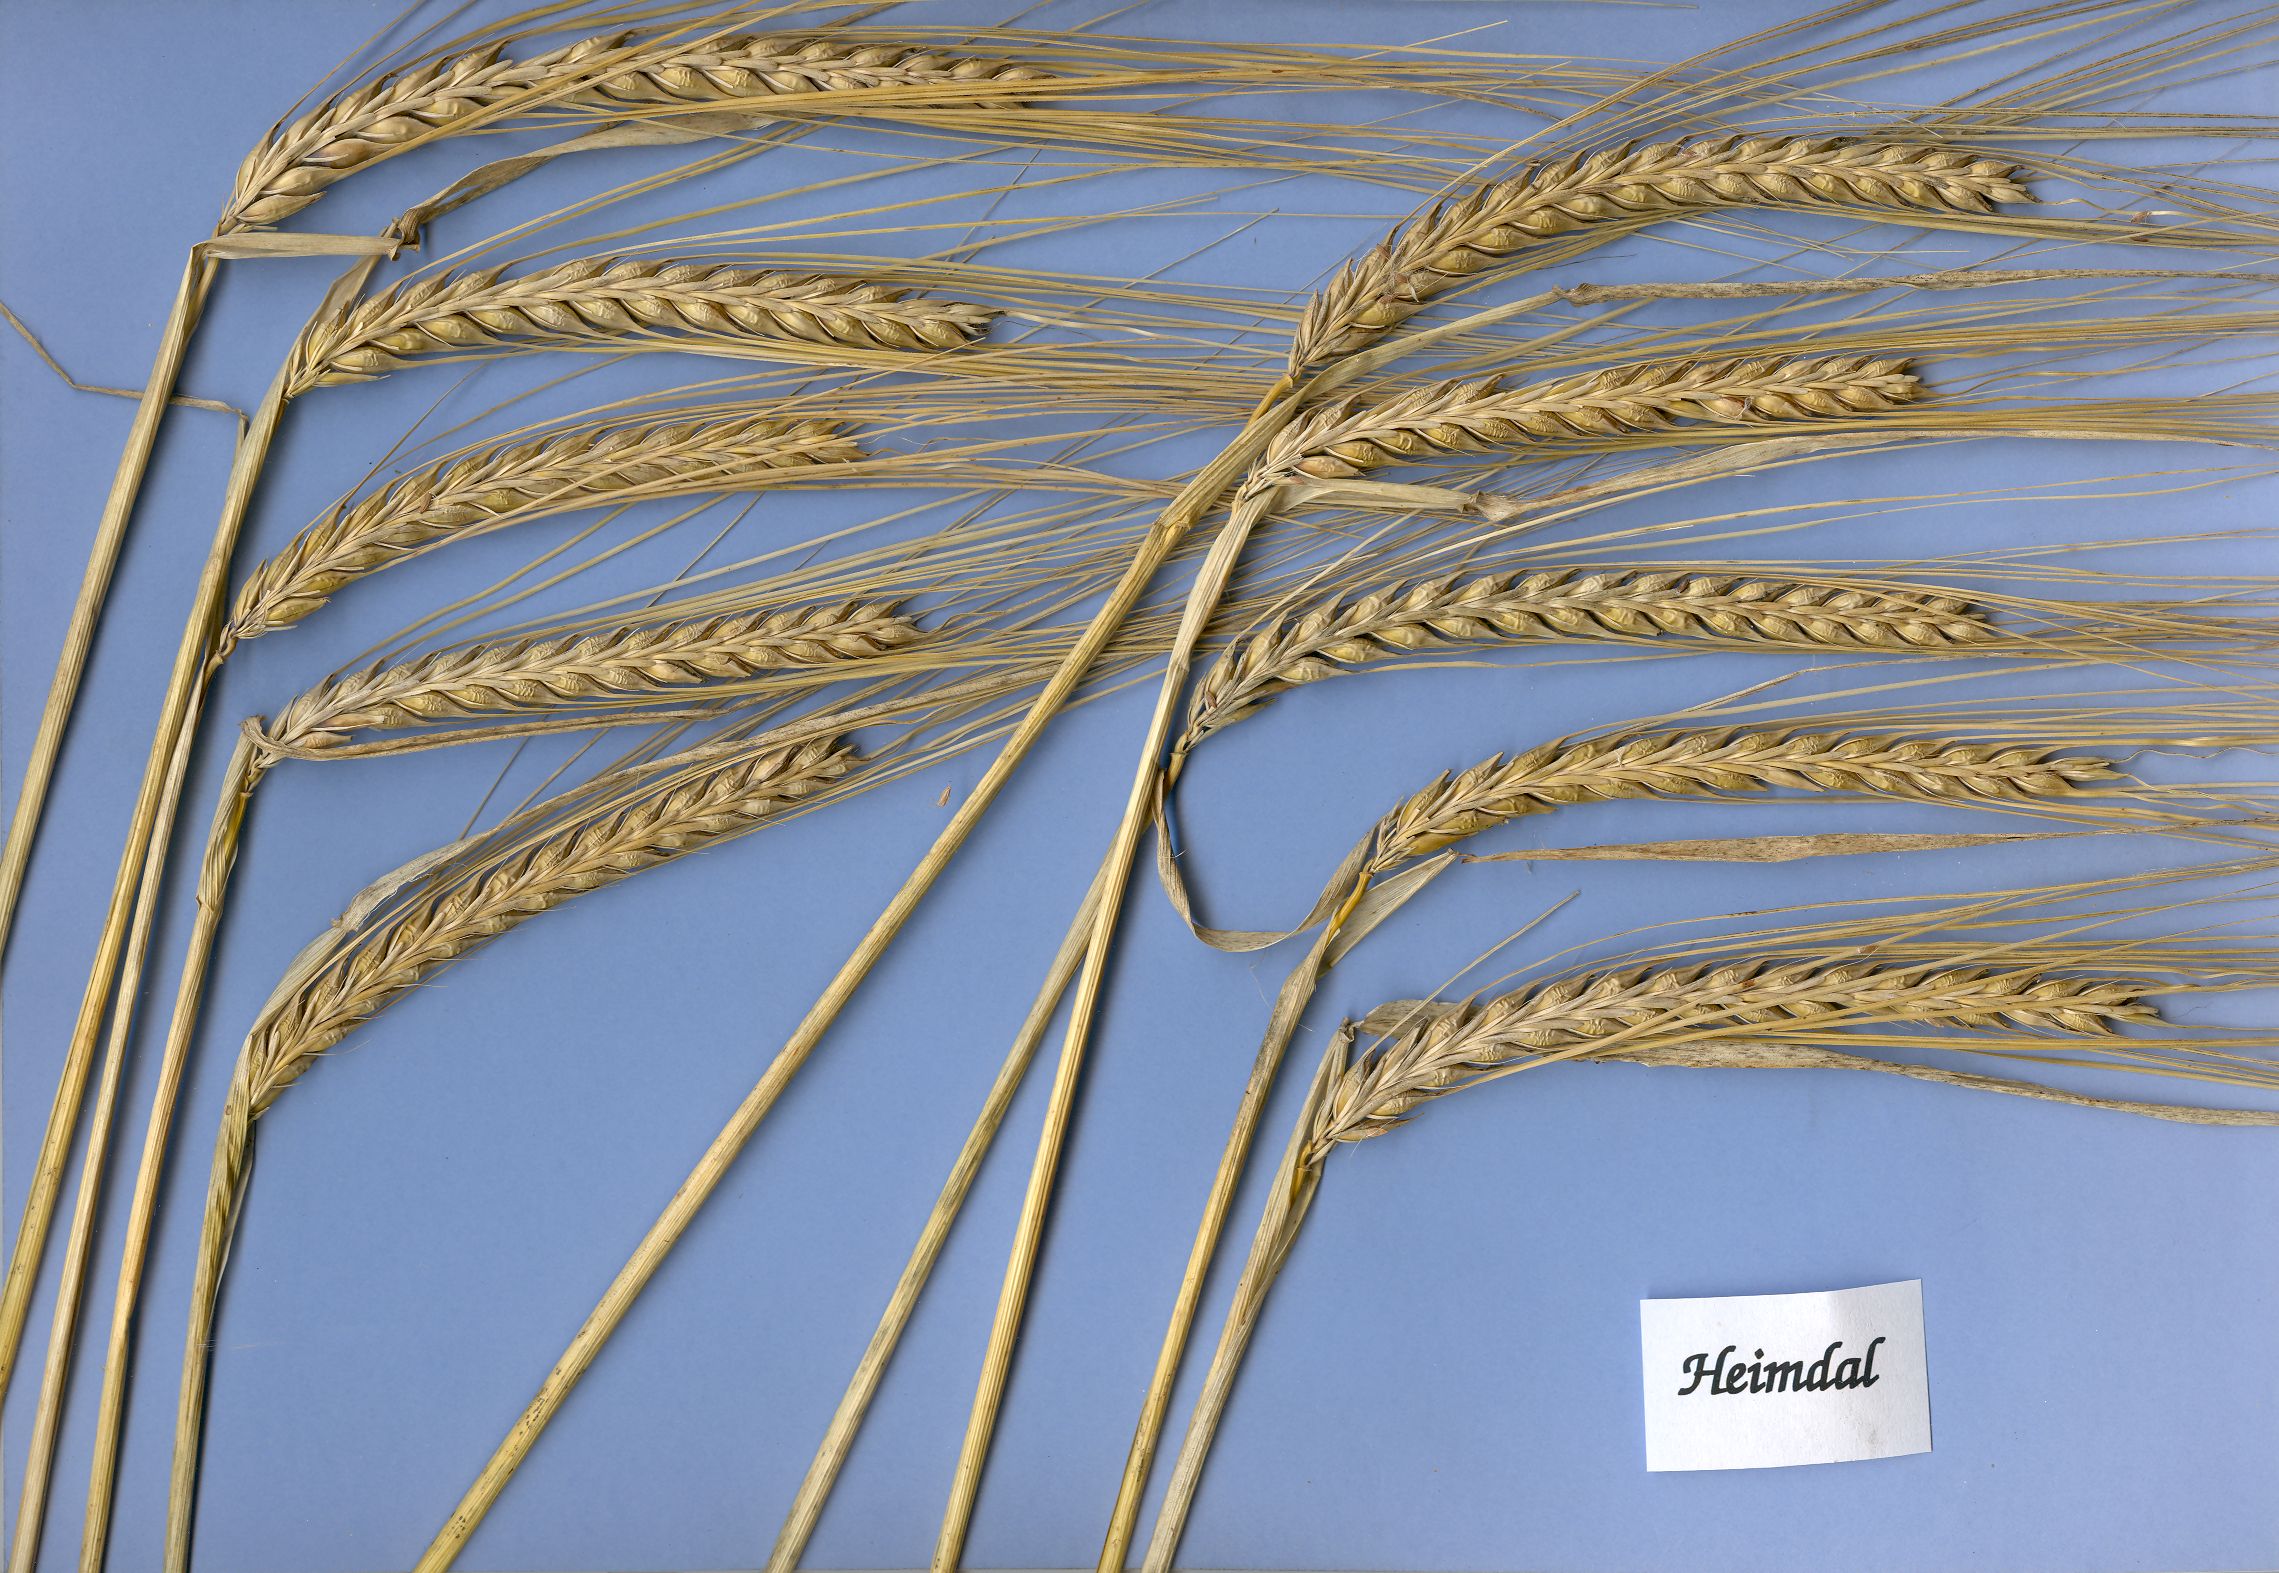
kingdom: Plantae
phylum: Tracheophyta
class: Liliopsida
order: Poales
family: Poaceae
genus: Hordeum
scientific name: Hordeum vulgare
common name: Common barley
